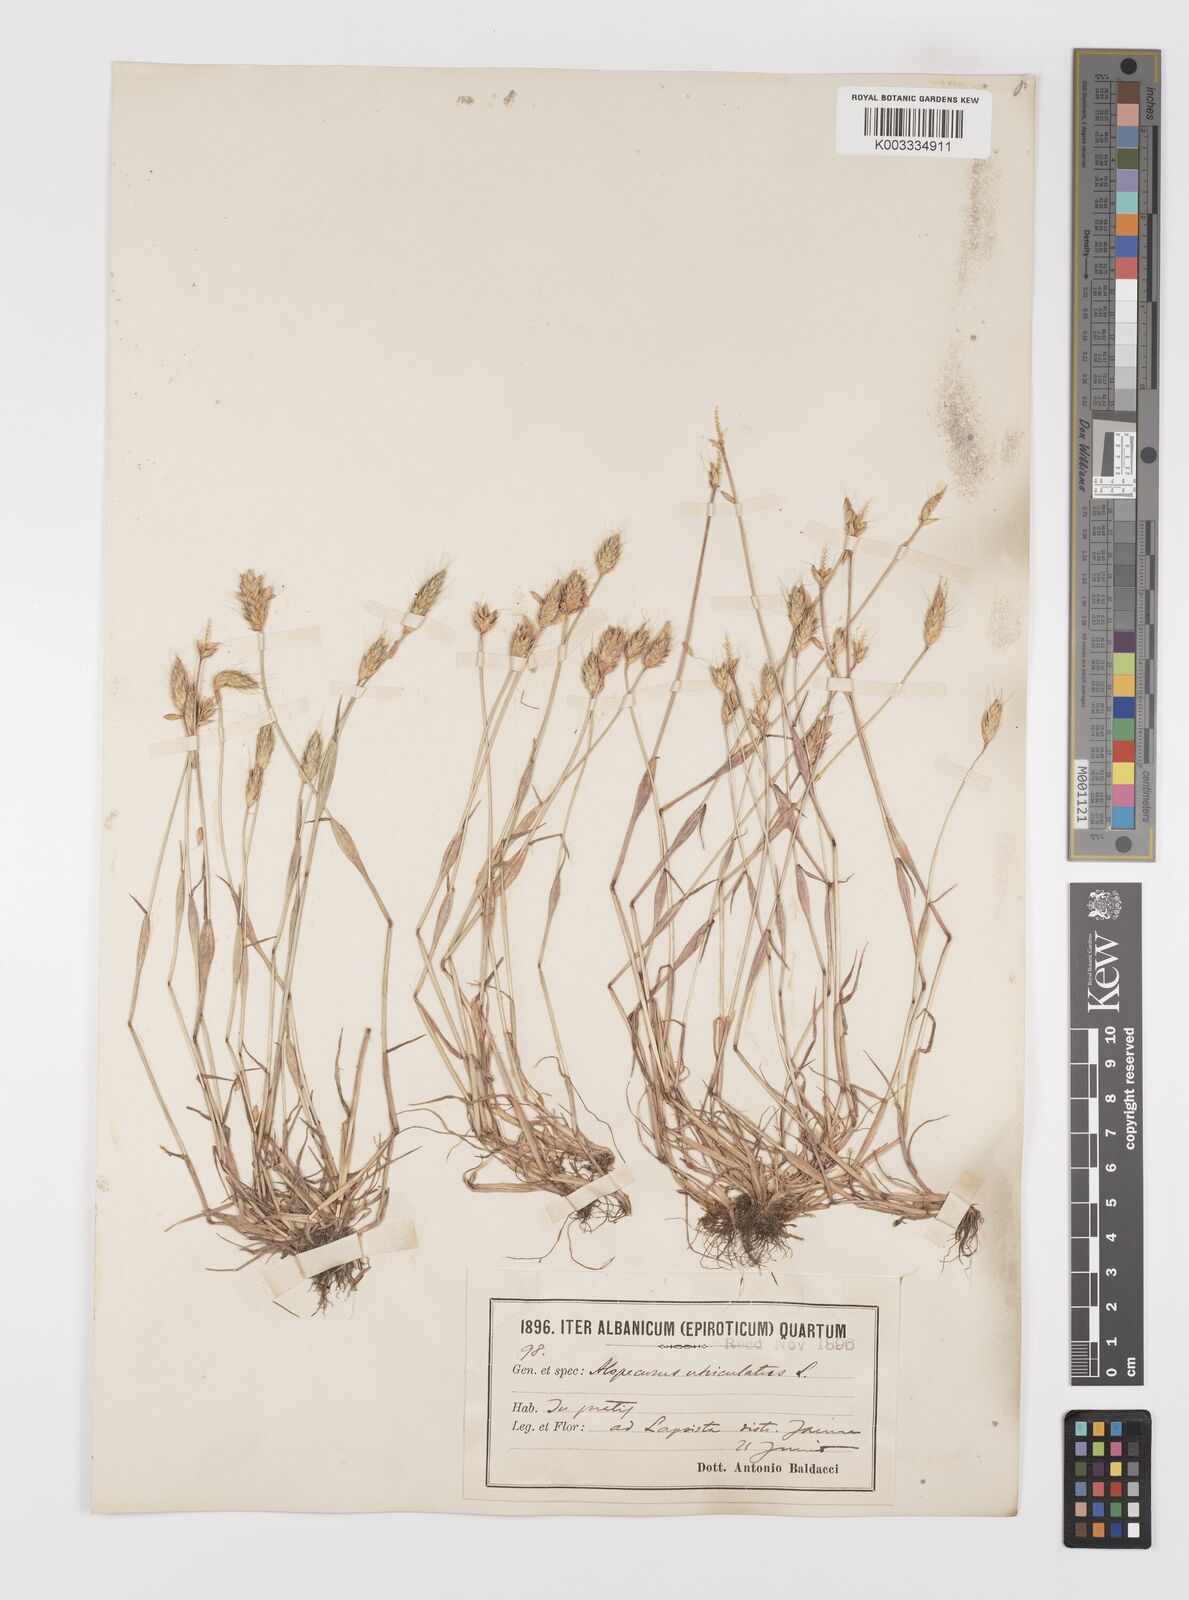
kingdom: Plantae
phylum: Tracheophyta
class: Liliopsida
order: Poales
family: Poaceae
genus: Alopecurus
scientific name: Alopecurus rendlei
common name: Rendle's meadow foxtail
